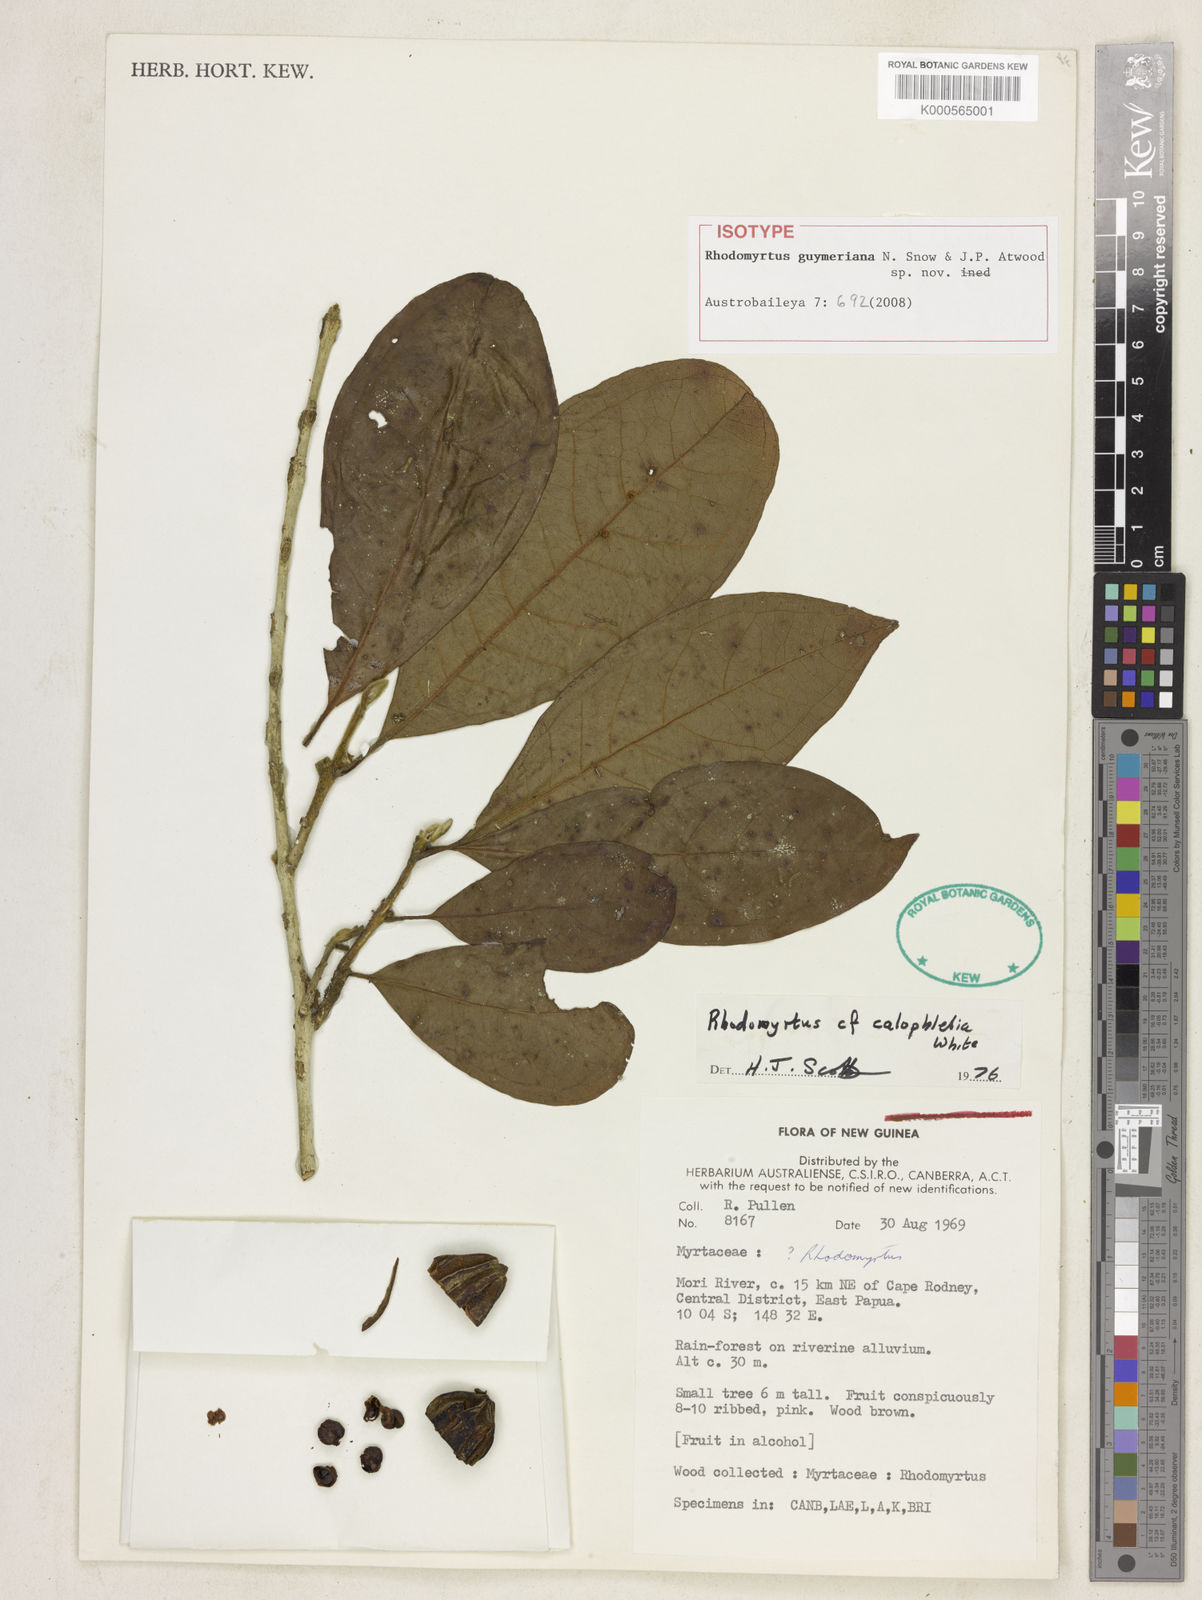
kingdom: Plantae
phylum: Tracheophyta
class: Magnoliopsida
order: Myrtales
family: Myrtaceae
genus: Rhodomyrtus
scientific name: Rhodomyrtus guymeriana
